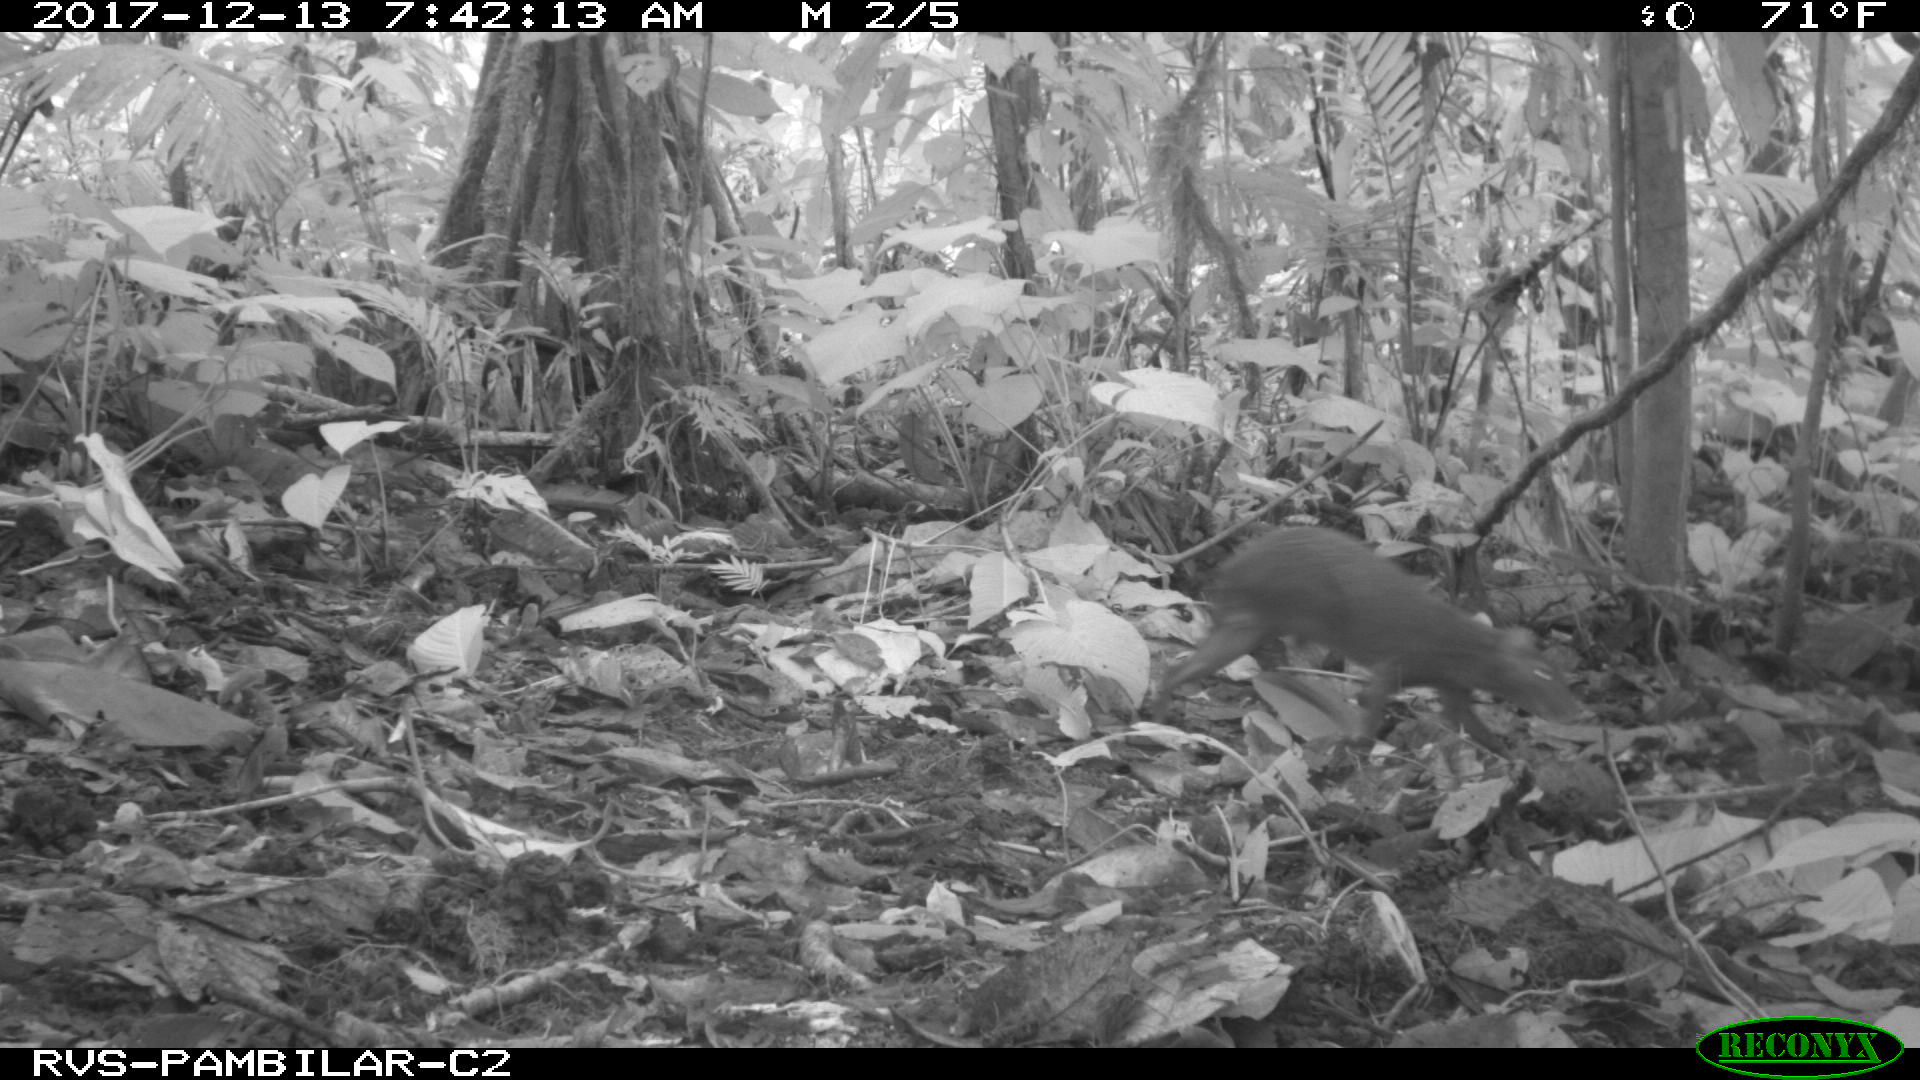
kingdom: Animalia
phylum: Chordata
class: Mammalia
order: Rodentia
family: Dasyproctidae
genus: Dasyprocta
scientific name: Dasyprocta punctata
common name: Central american agouti
